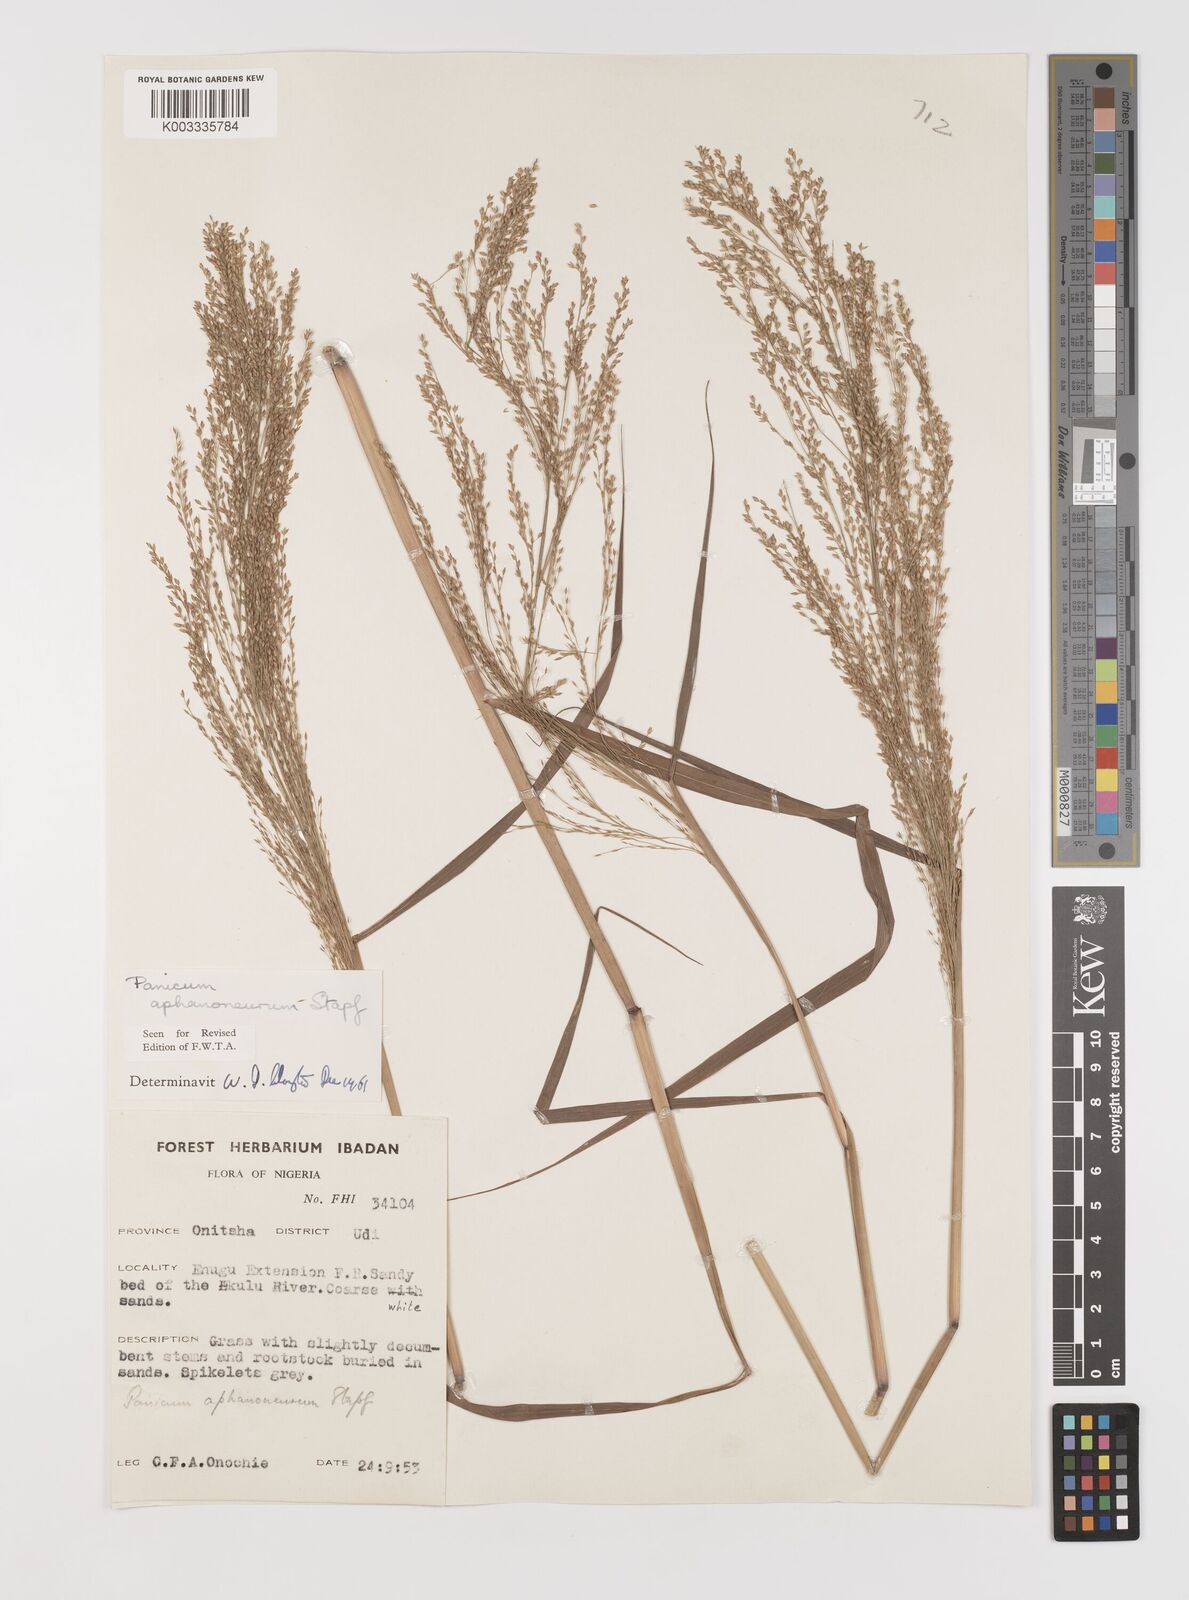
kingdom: Plantae
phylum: Tracheophyta
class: Liliopsida
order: Poales
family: Poaceae
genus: Panicum
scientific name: Panicum fluviicola
